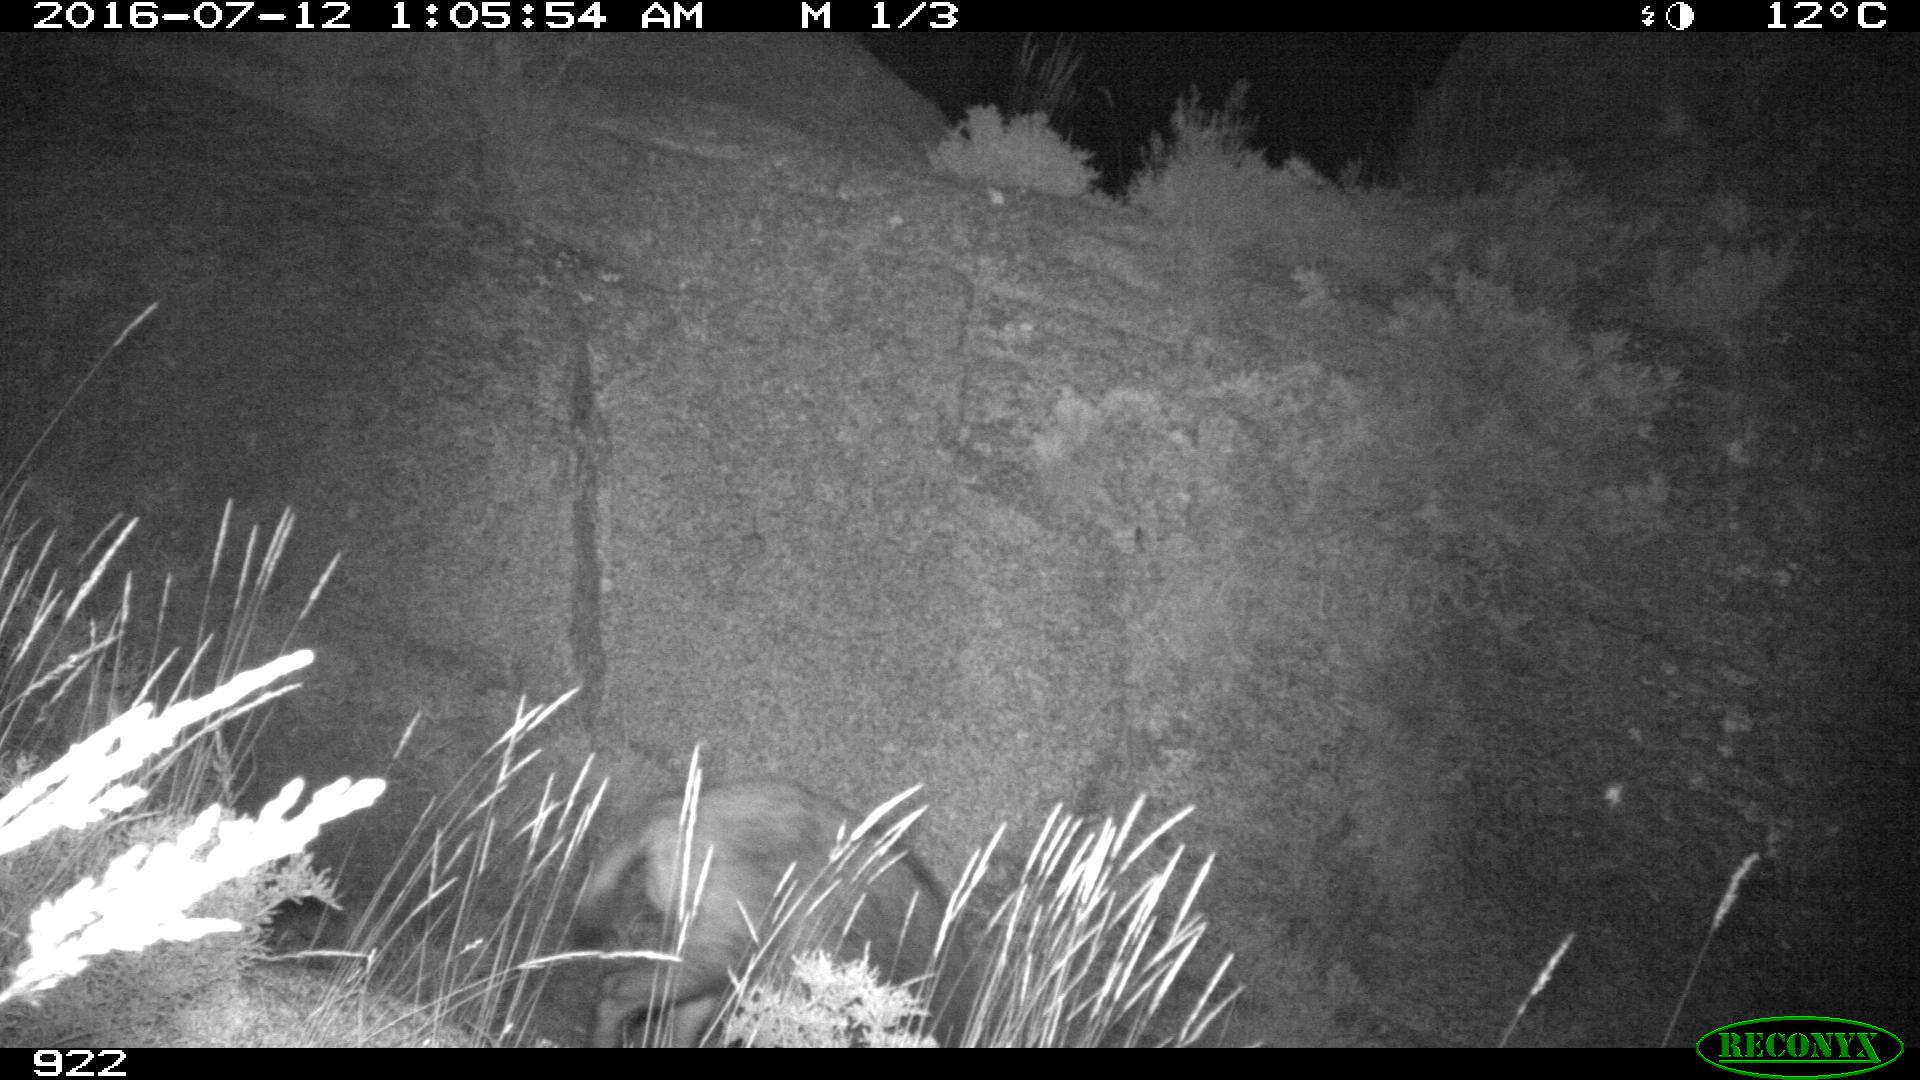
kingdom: Animalia
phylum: Chordata
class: Mammalia
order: Artiodactyla
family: Suidae
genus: Sus
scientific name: Sus scrofa
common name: Wild boar
